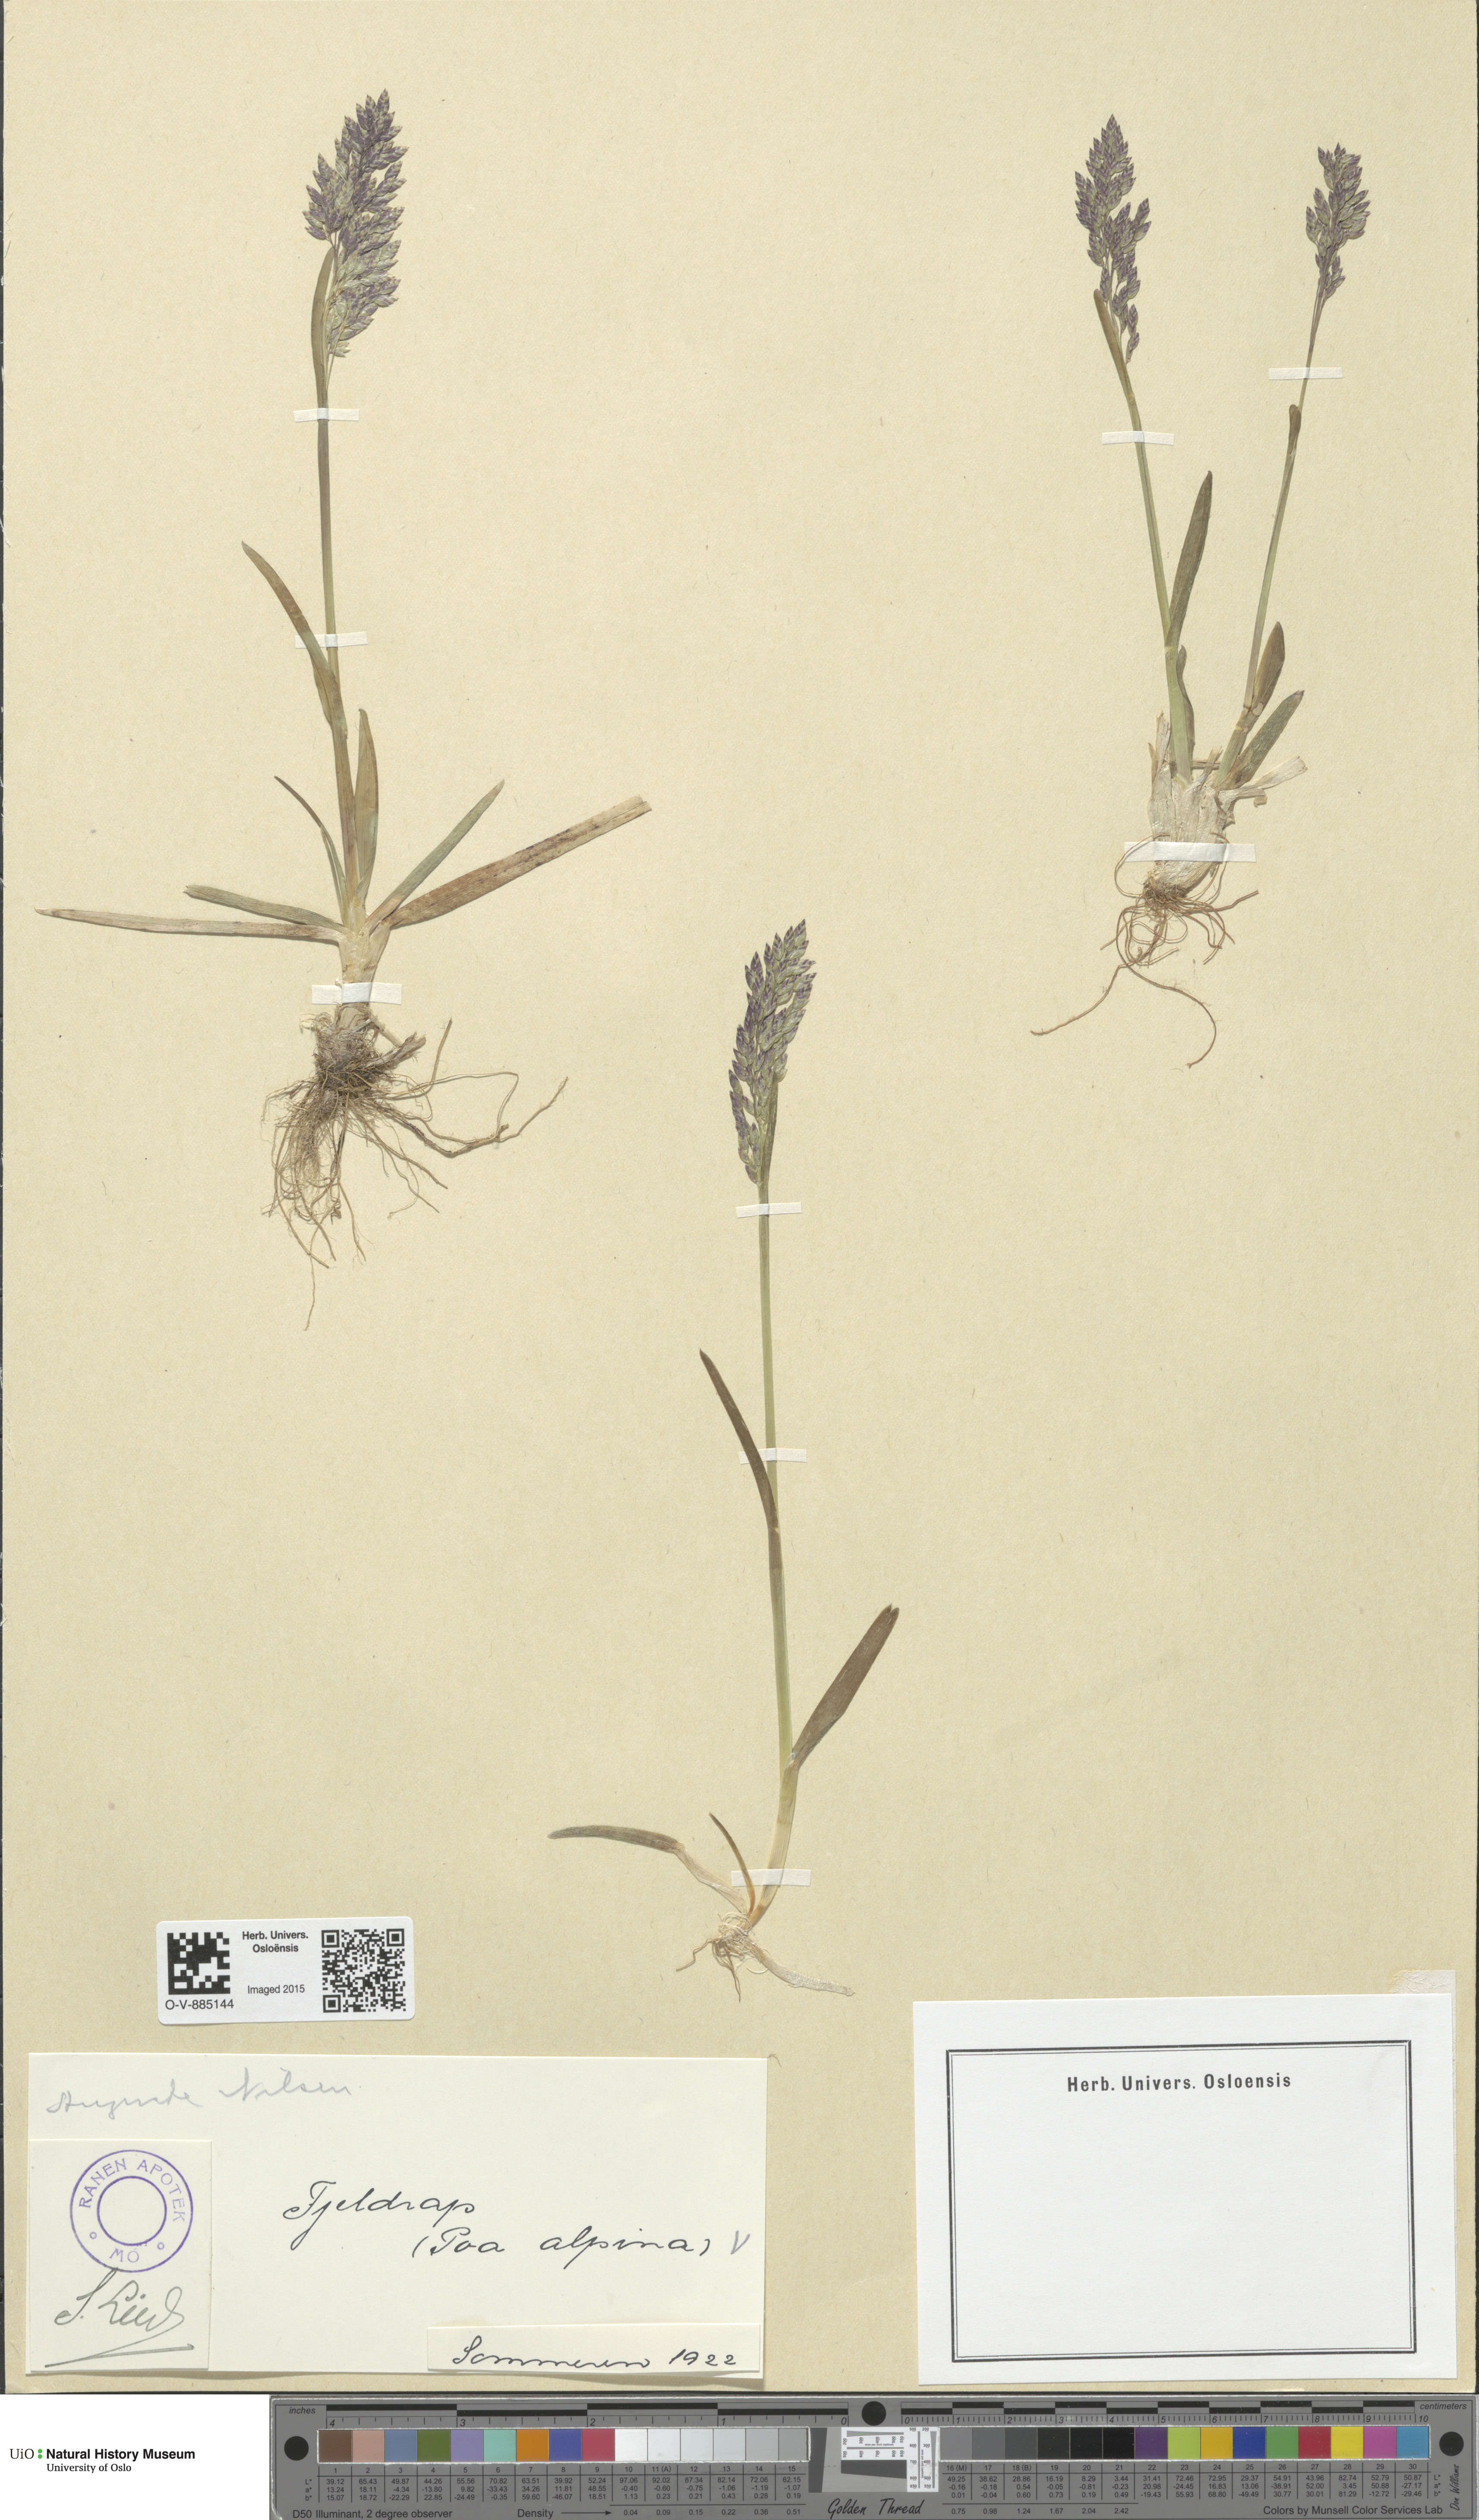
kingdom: Plantae
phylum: Tracheophyta
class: Liliopsida
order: Poales
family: Poaceae
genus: Poa
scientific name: Poa alpina
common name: Alpine bluegrass
